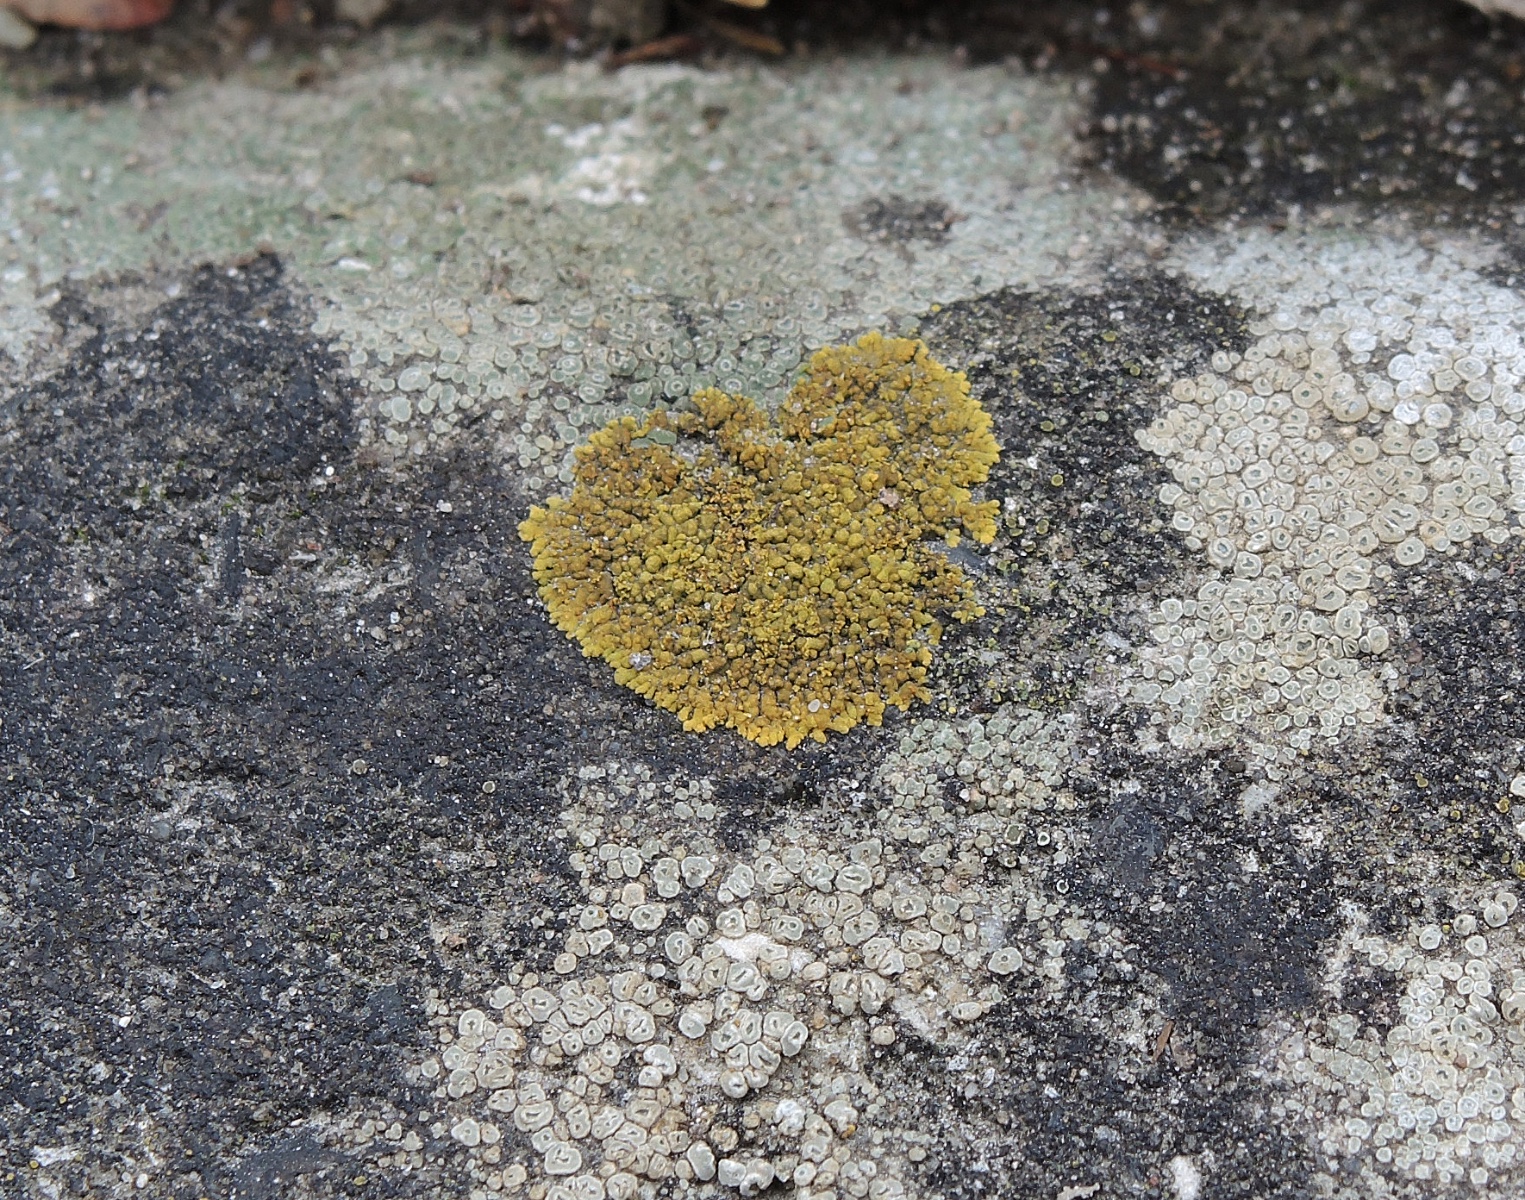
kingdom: Fungi
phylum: Ascomycota
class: Lecanoromycetes
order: Teloschistales
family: Teloschistaceae
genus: Calogaya
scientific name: Calogaya decipiens
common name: knudret orangelav
